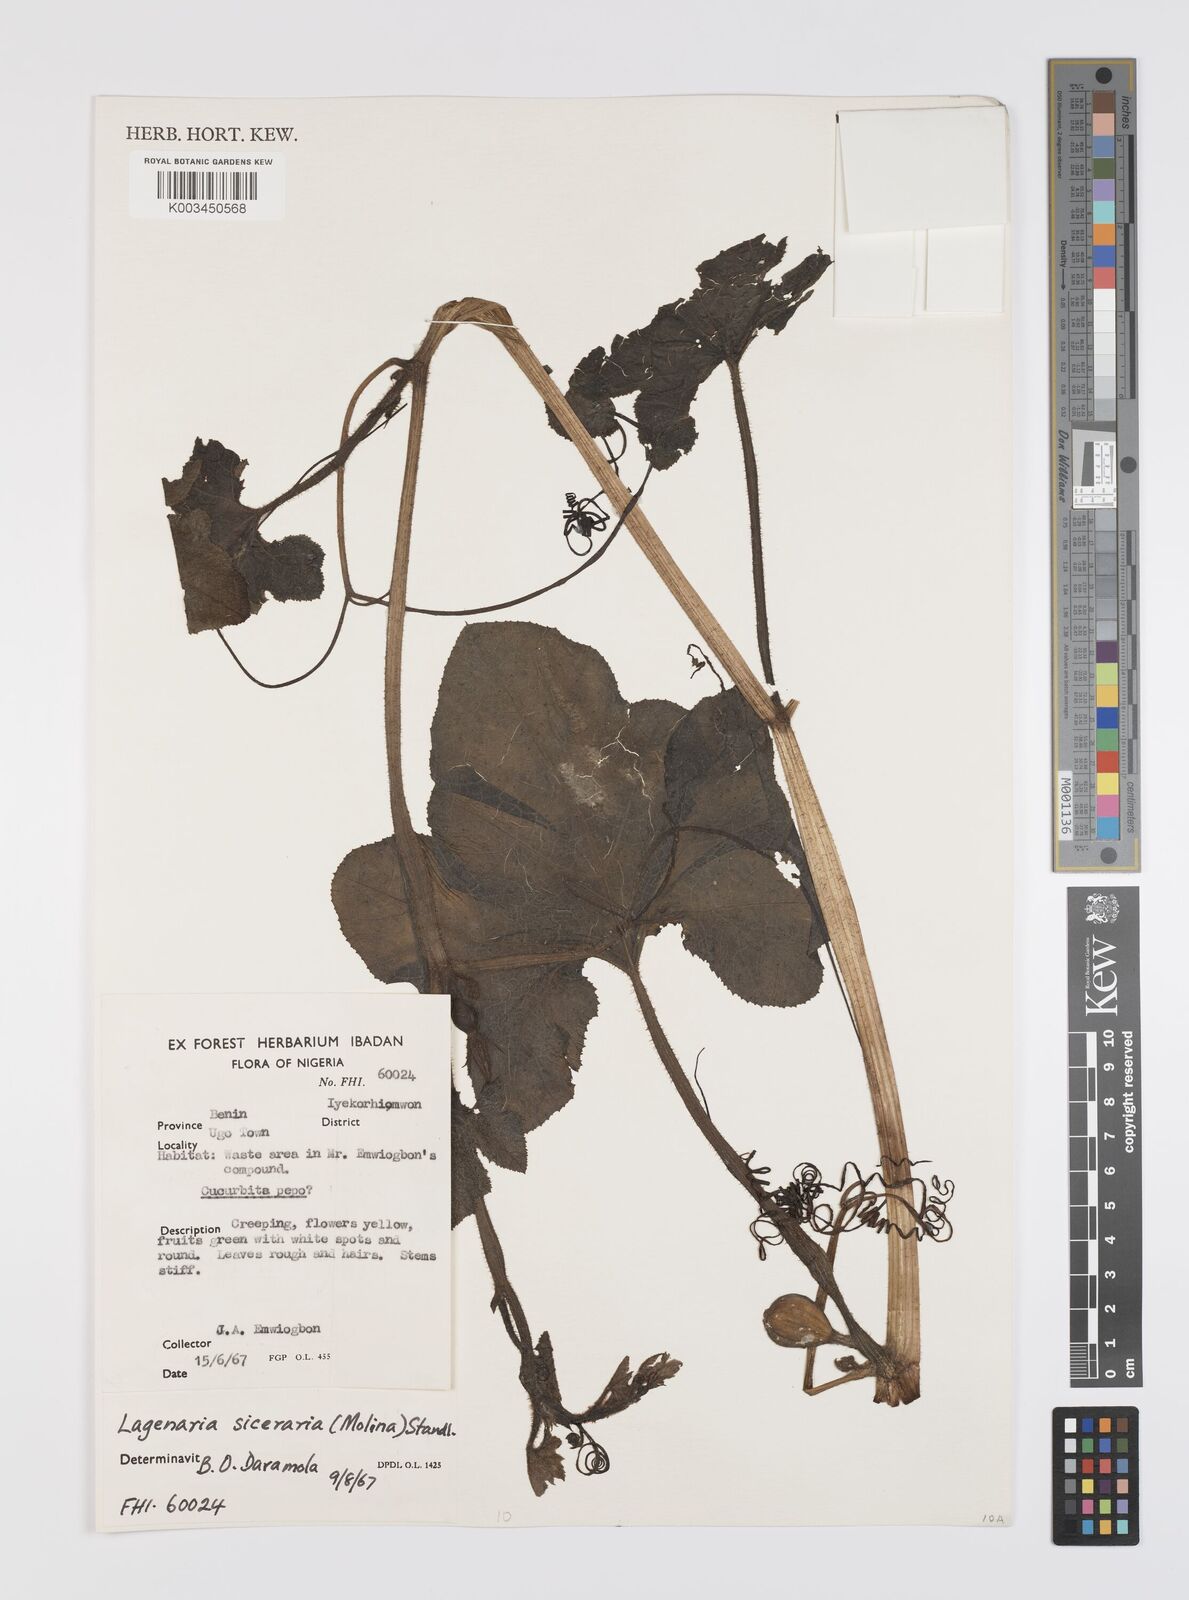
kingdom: Plantae
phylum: Tracheophyta
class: Magnoliopsida
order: Cucurbitales
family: Cucurbitaceae
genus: Lagenaria
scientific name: Lagenaria siceraria
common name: Bottle gourd
